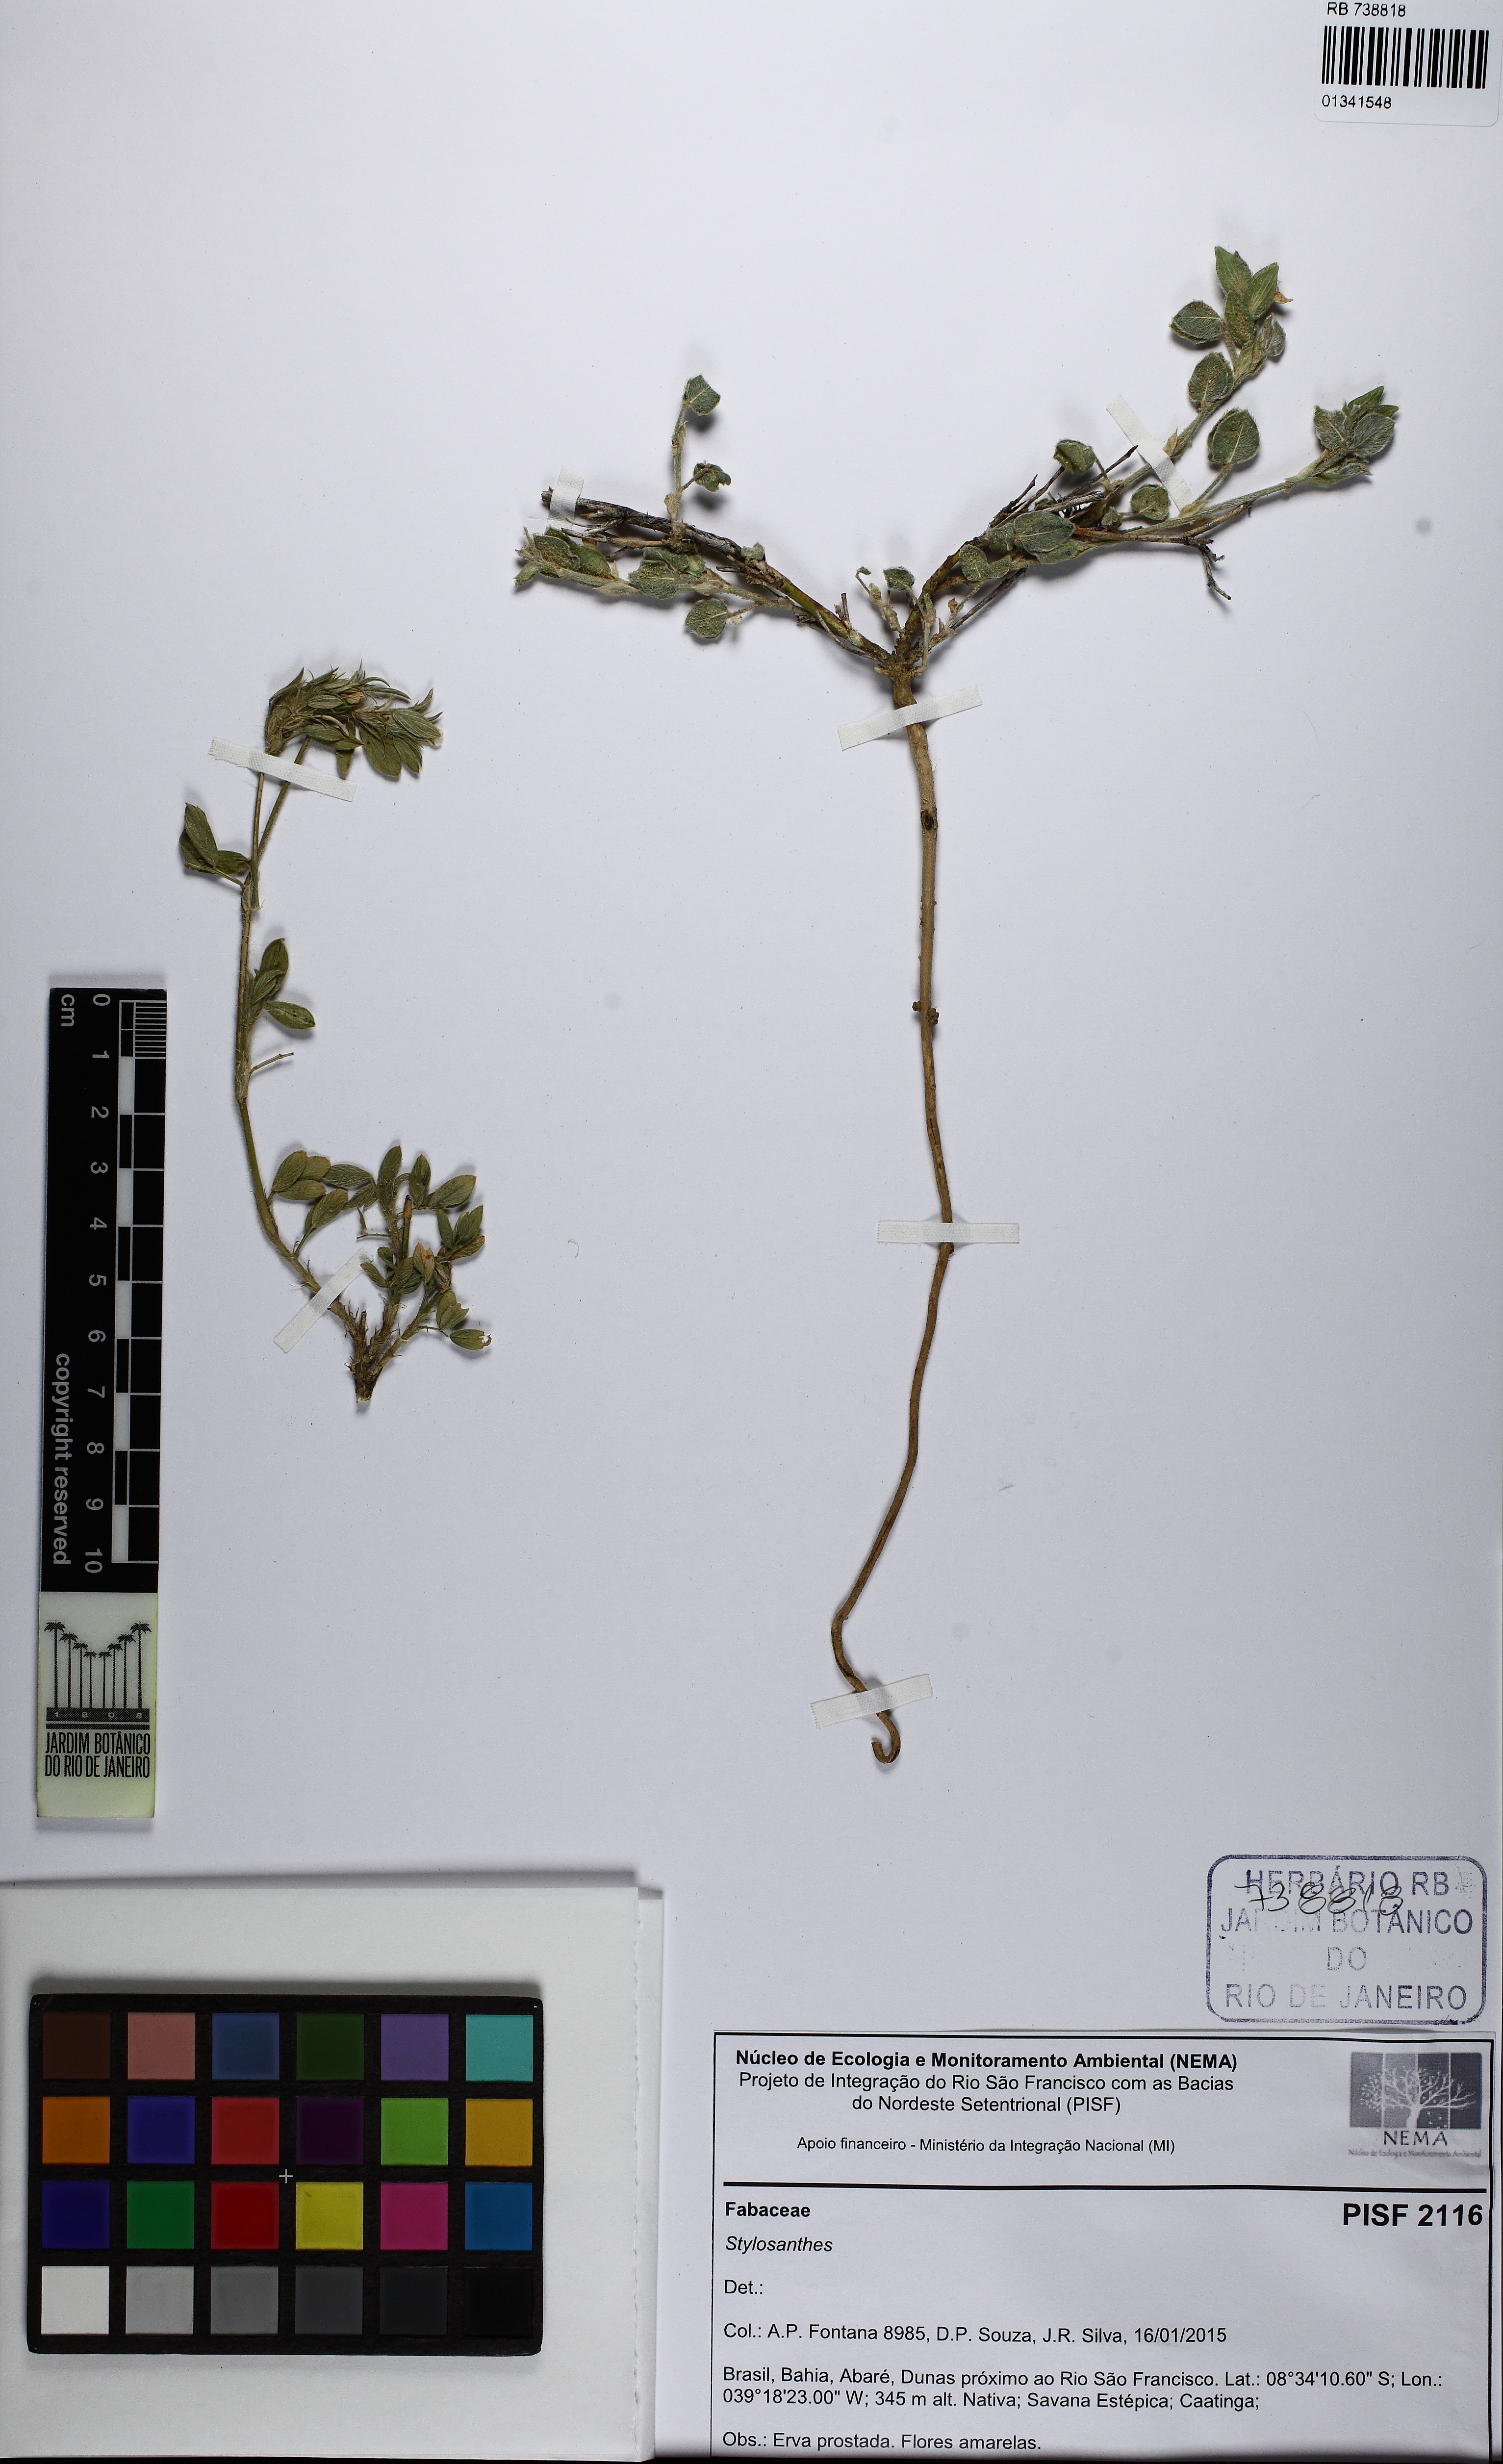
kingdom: Plantae
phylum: Tracheophyta
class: Magnoliopsida
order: Fabales
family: Fabaceae
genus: Stylosanthes
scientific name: Stylosanthes viscosa
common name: Viscid pencil-flower
